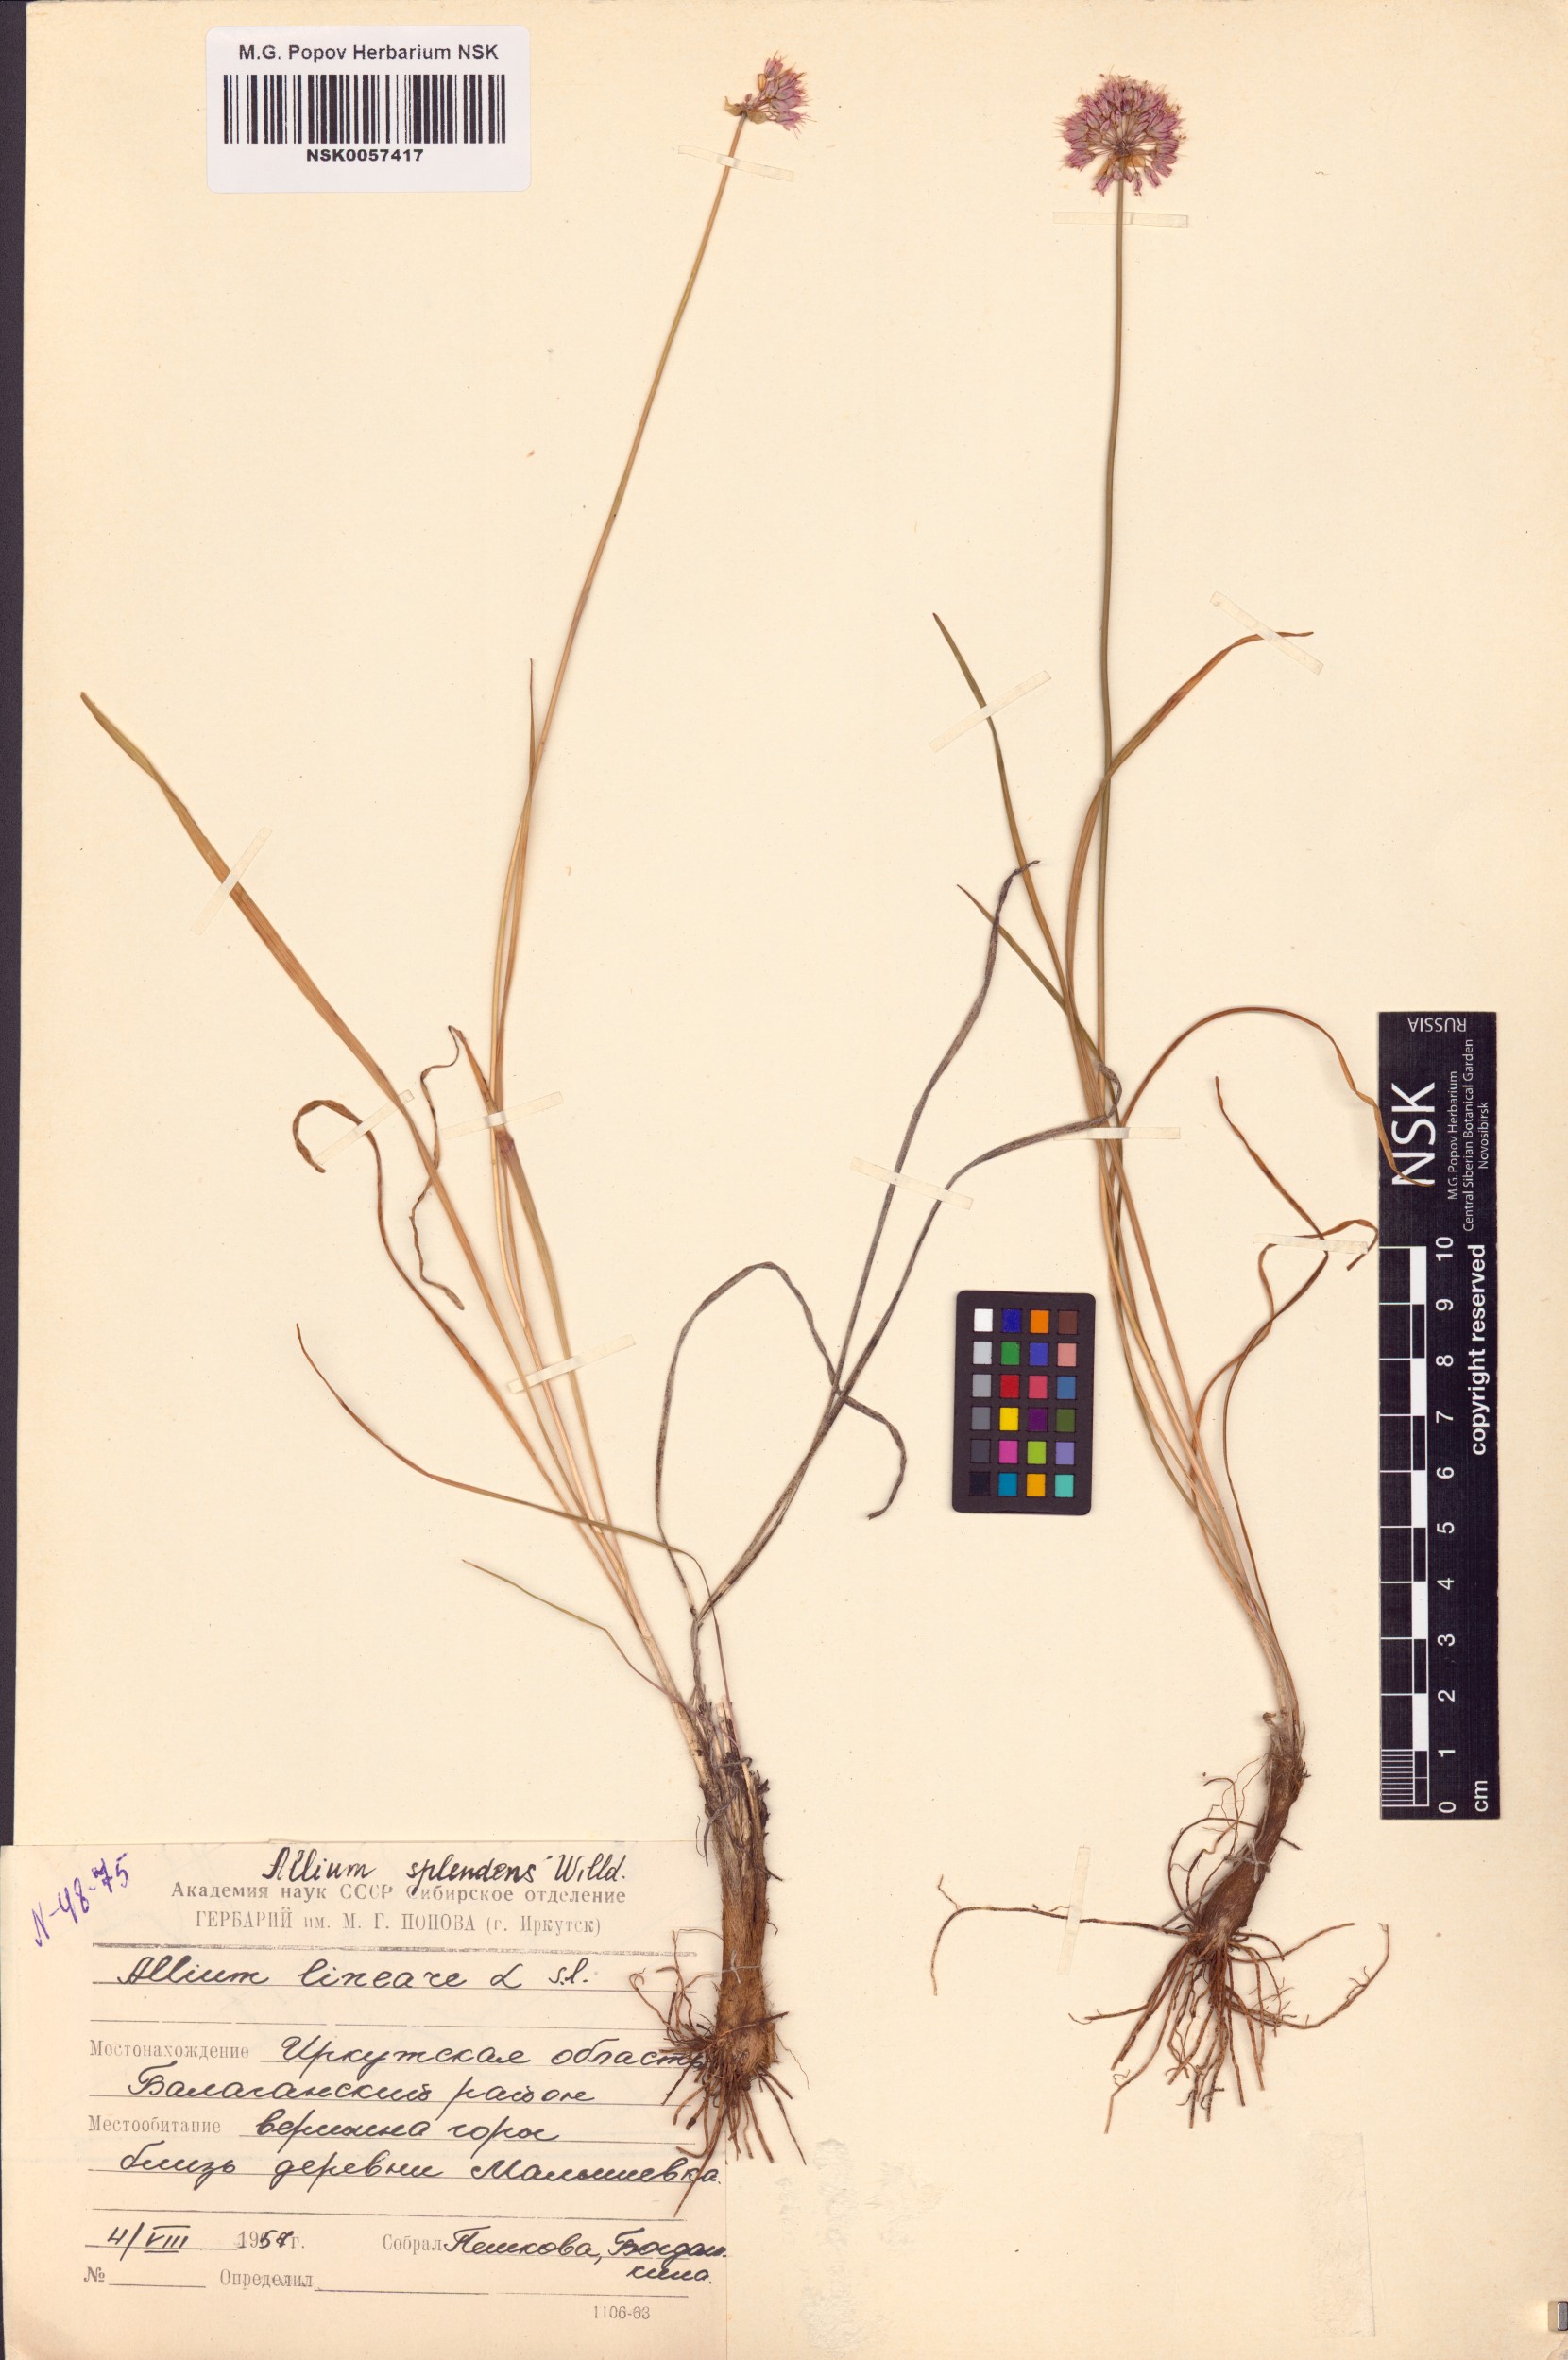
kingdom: Plantae
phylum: Tracheophyta
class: Liliopsida
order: Asparagales
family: Amaryllidaceae
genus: Allium
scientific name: Allium splendens
